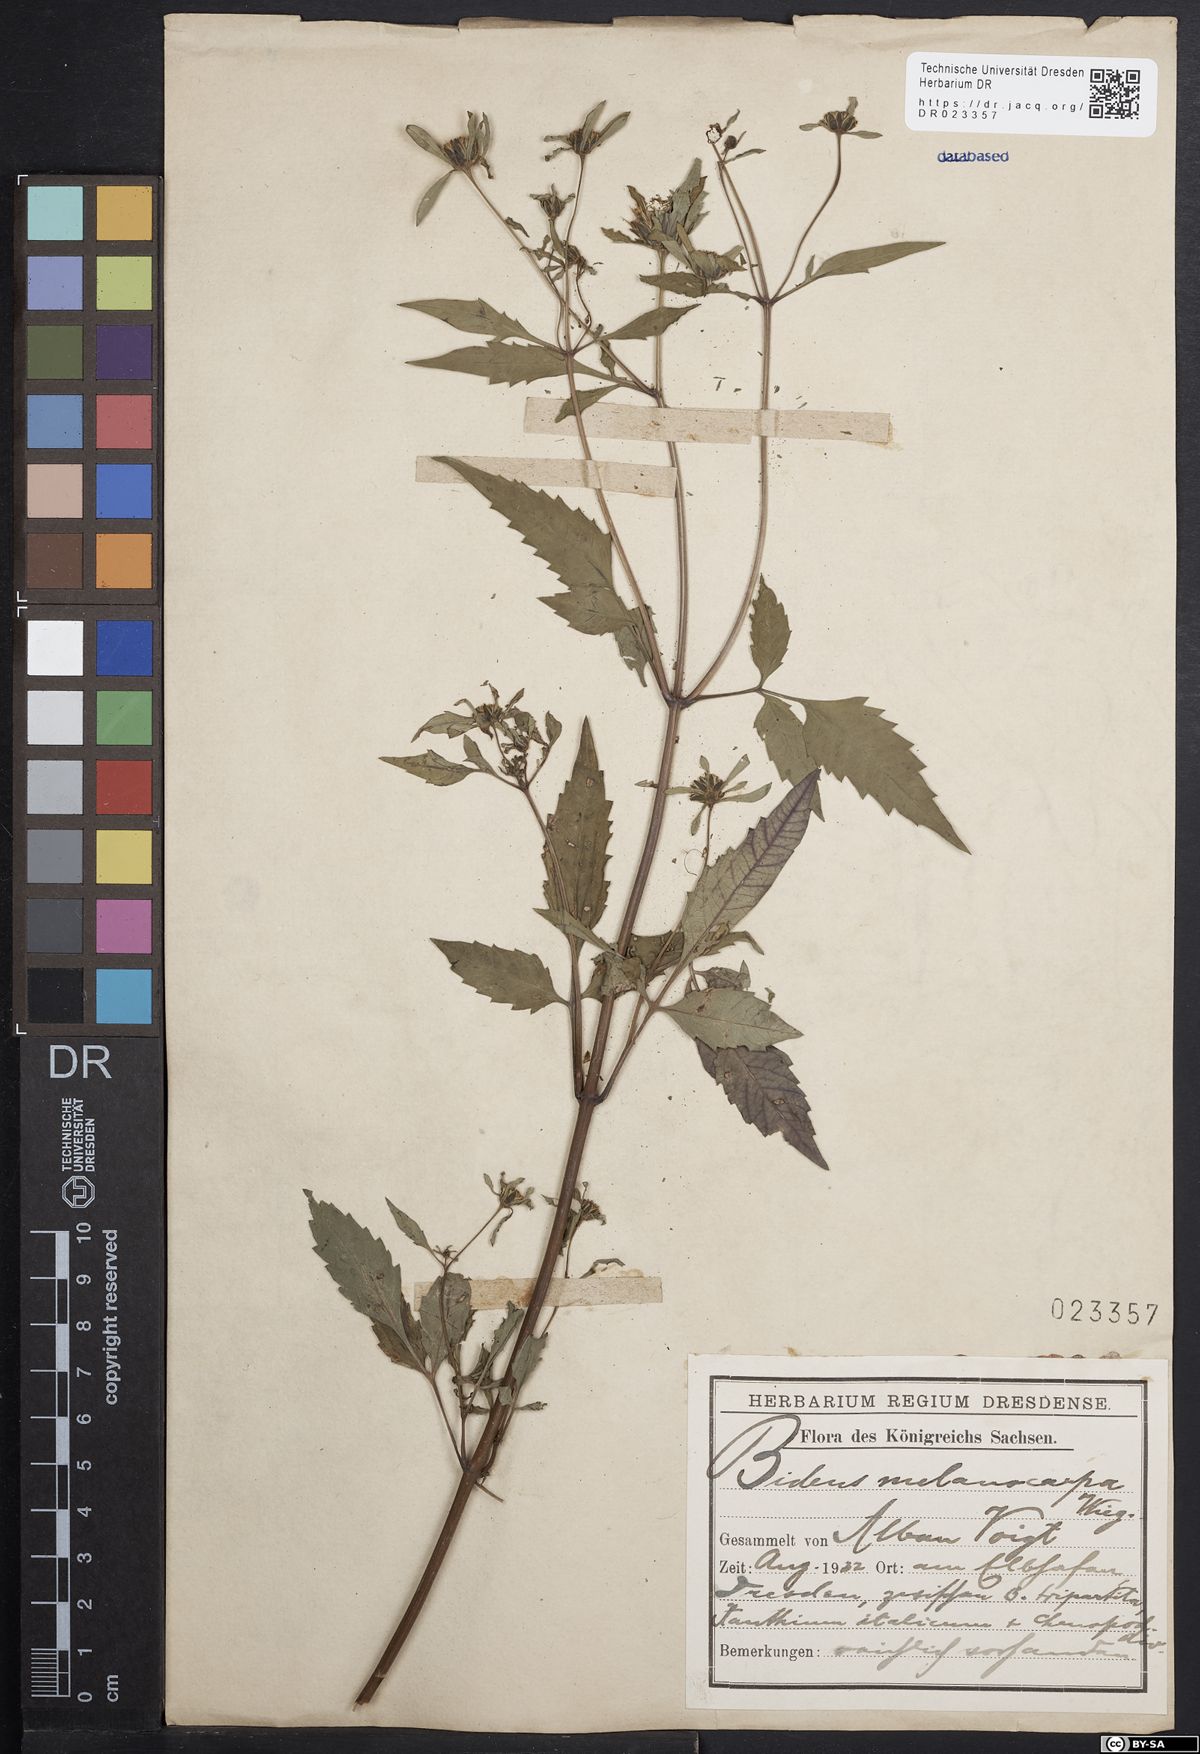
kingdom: Plantae
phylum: Tracheophyta
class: Magnoliopsida
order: Asterales
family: Asteraceae
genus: Bidens
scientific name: Bidens frondosa
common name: Beggarticks
